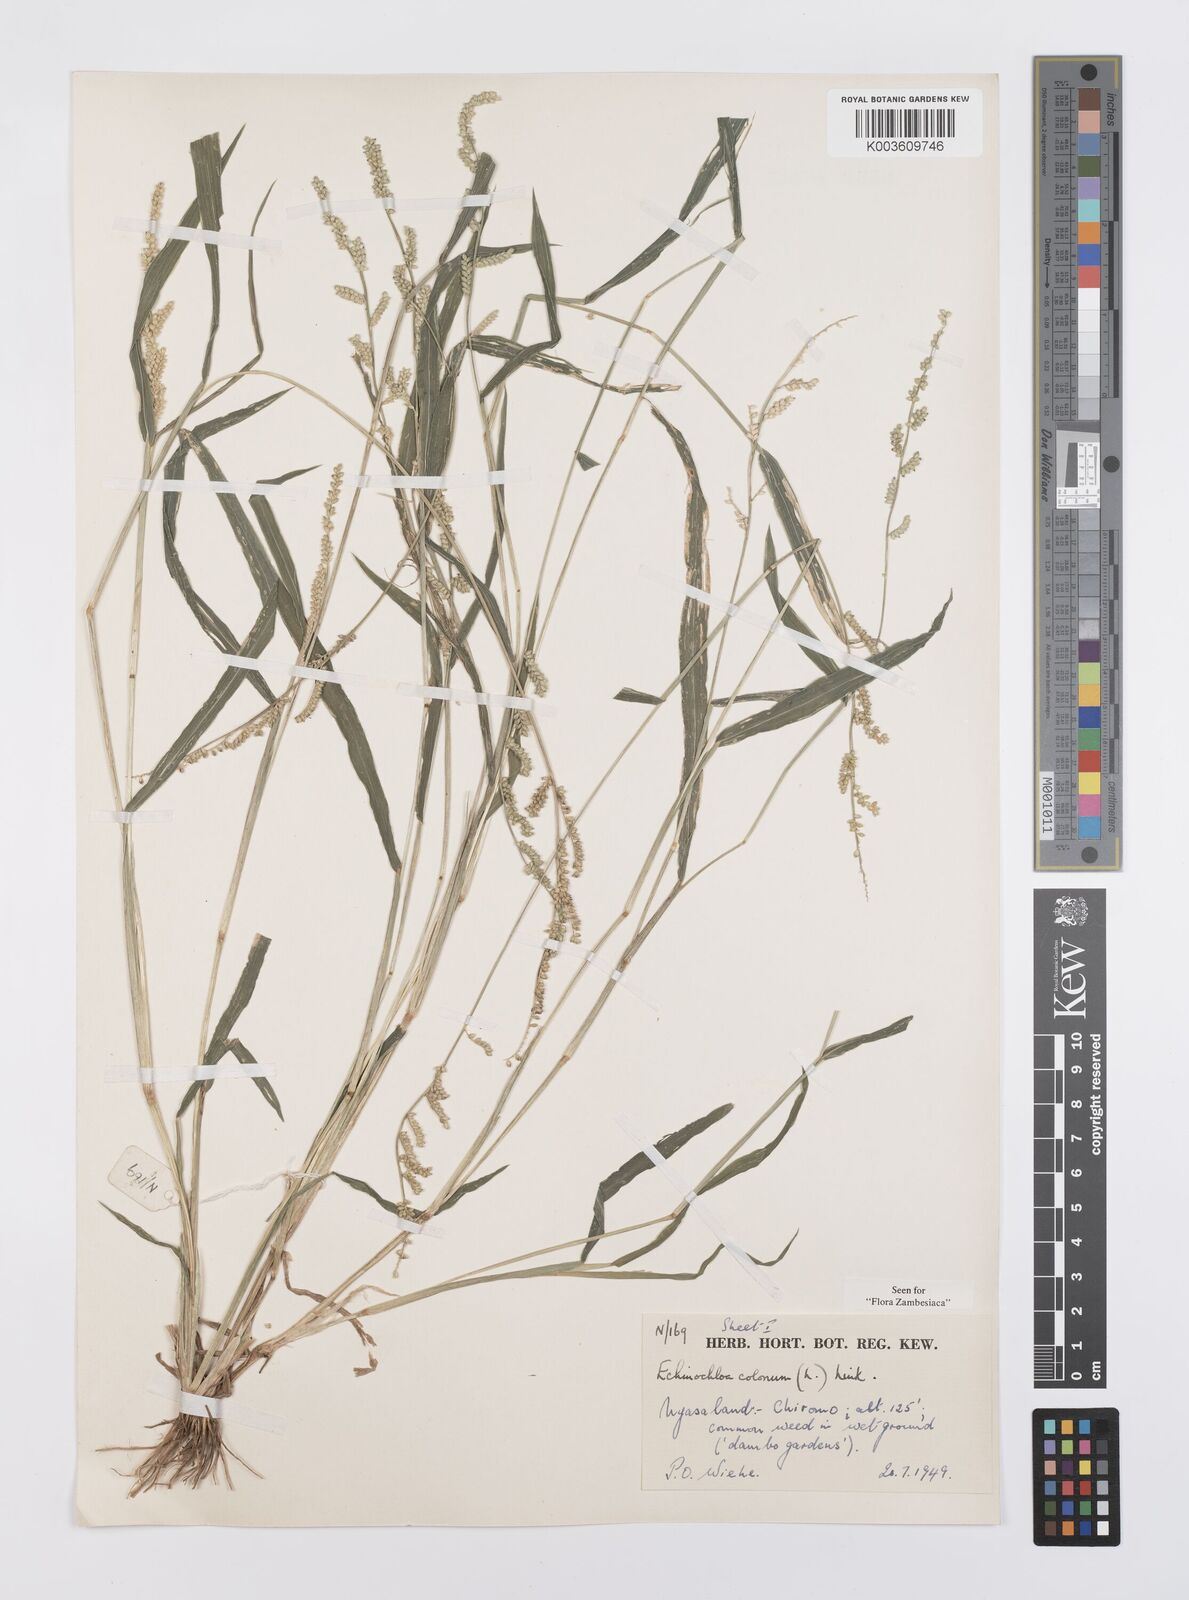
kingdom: Plantae
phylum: Tracheophyta
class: Liliopsida
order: Poales
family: Poaceae
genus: Echinochloa
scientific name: Echinochloa colonum
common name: Jungle rice
